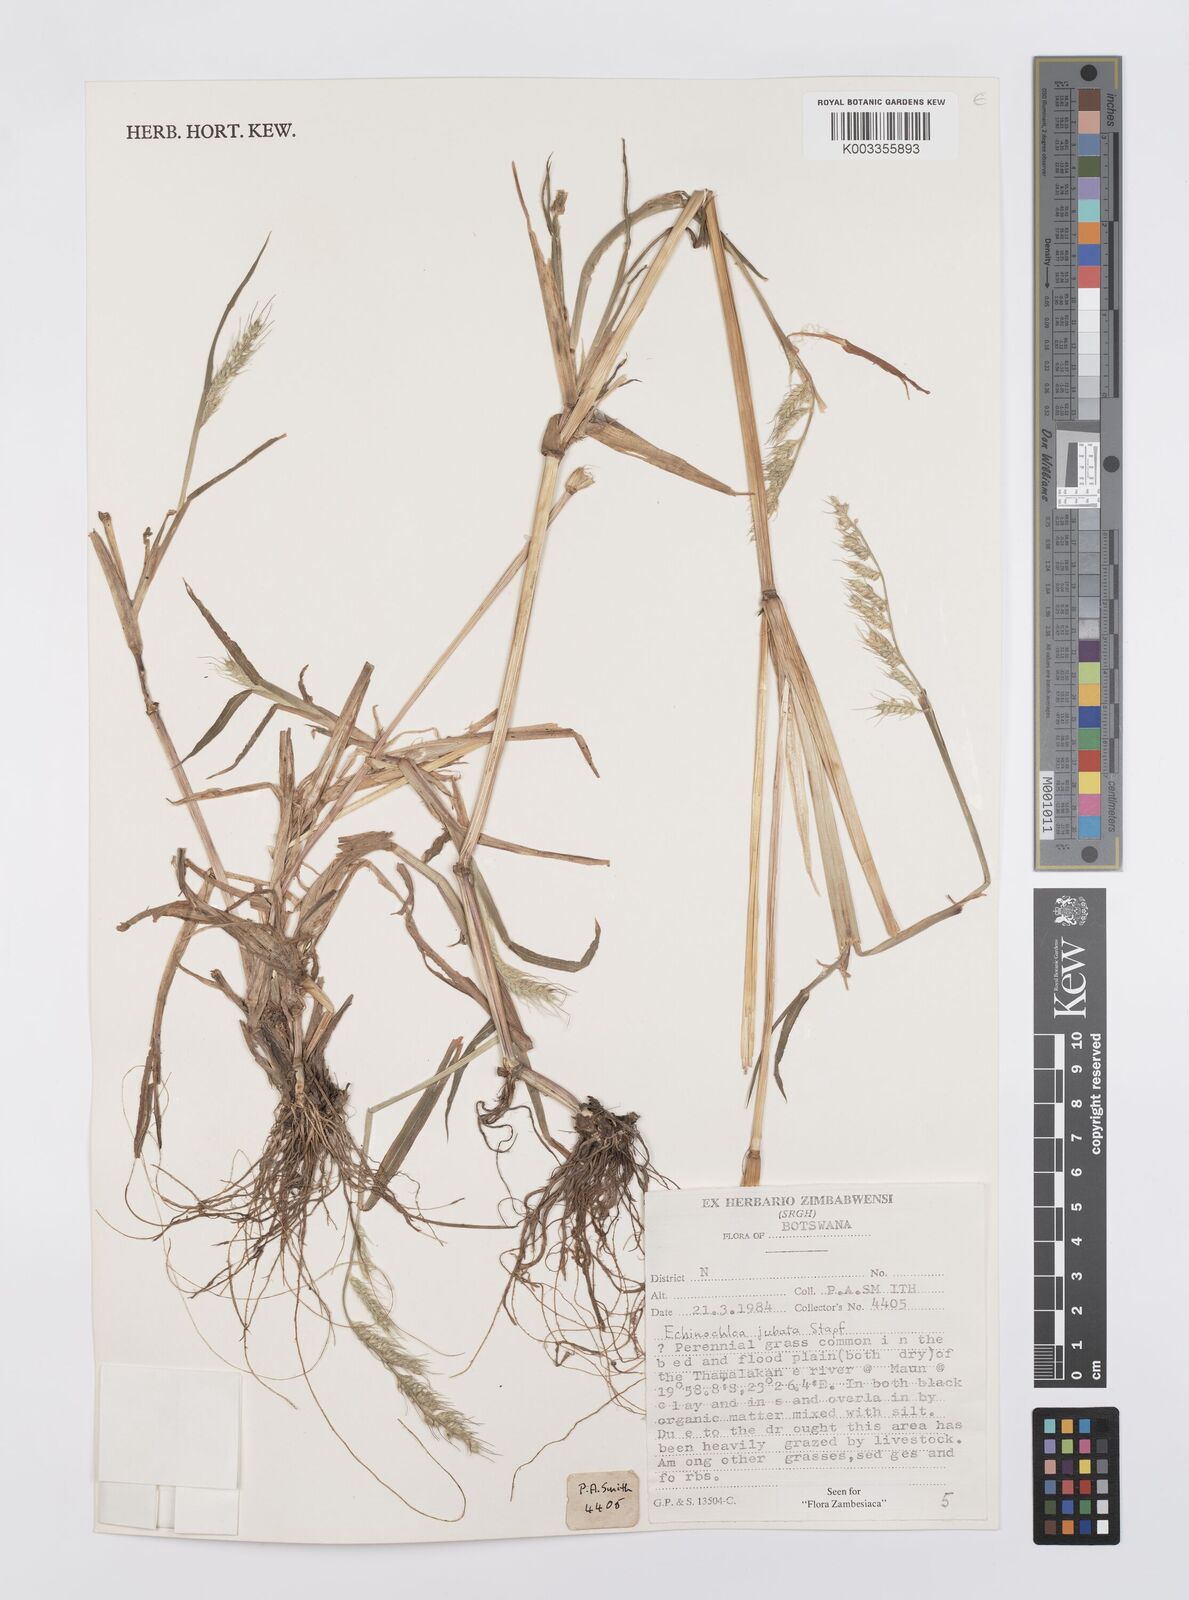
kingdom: Plantae
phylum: Tracheophyta
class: Liliopsida
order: Poales
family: Poaceae
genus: Echinochloa
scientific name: Echinochloa jubata
